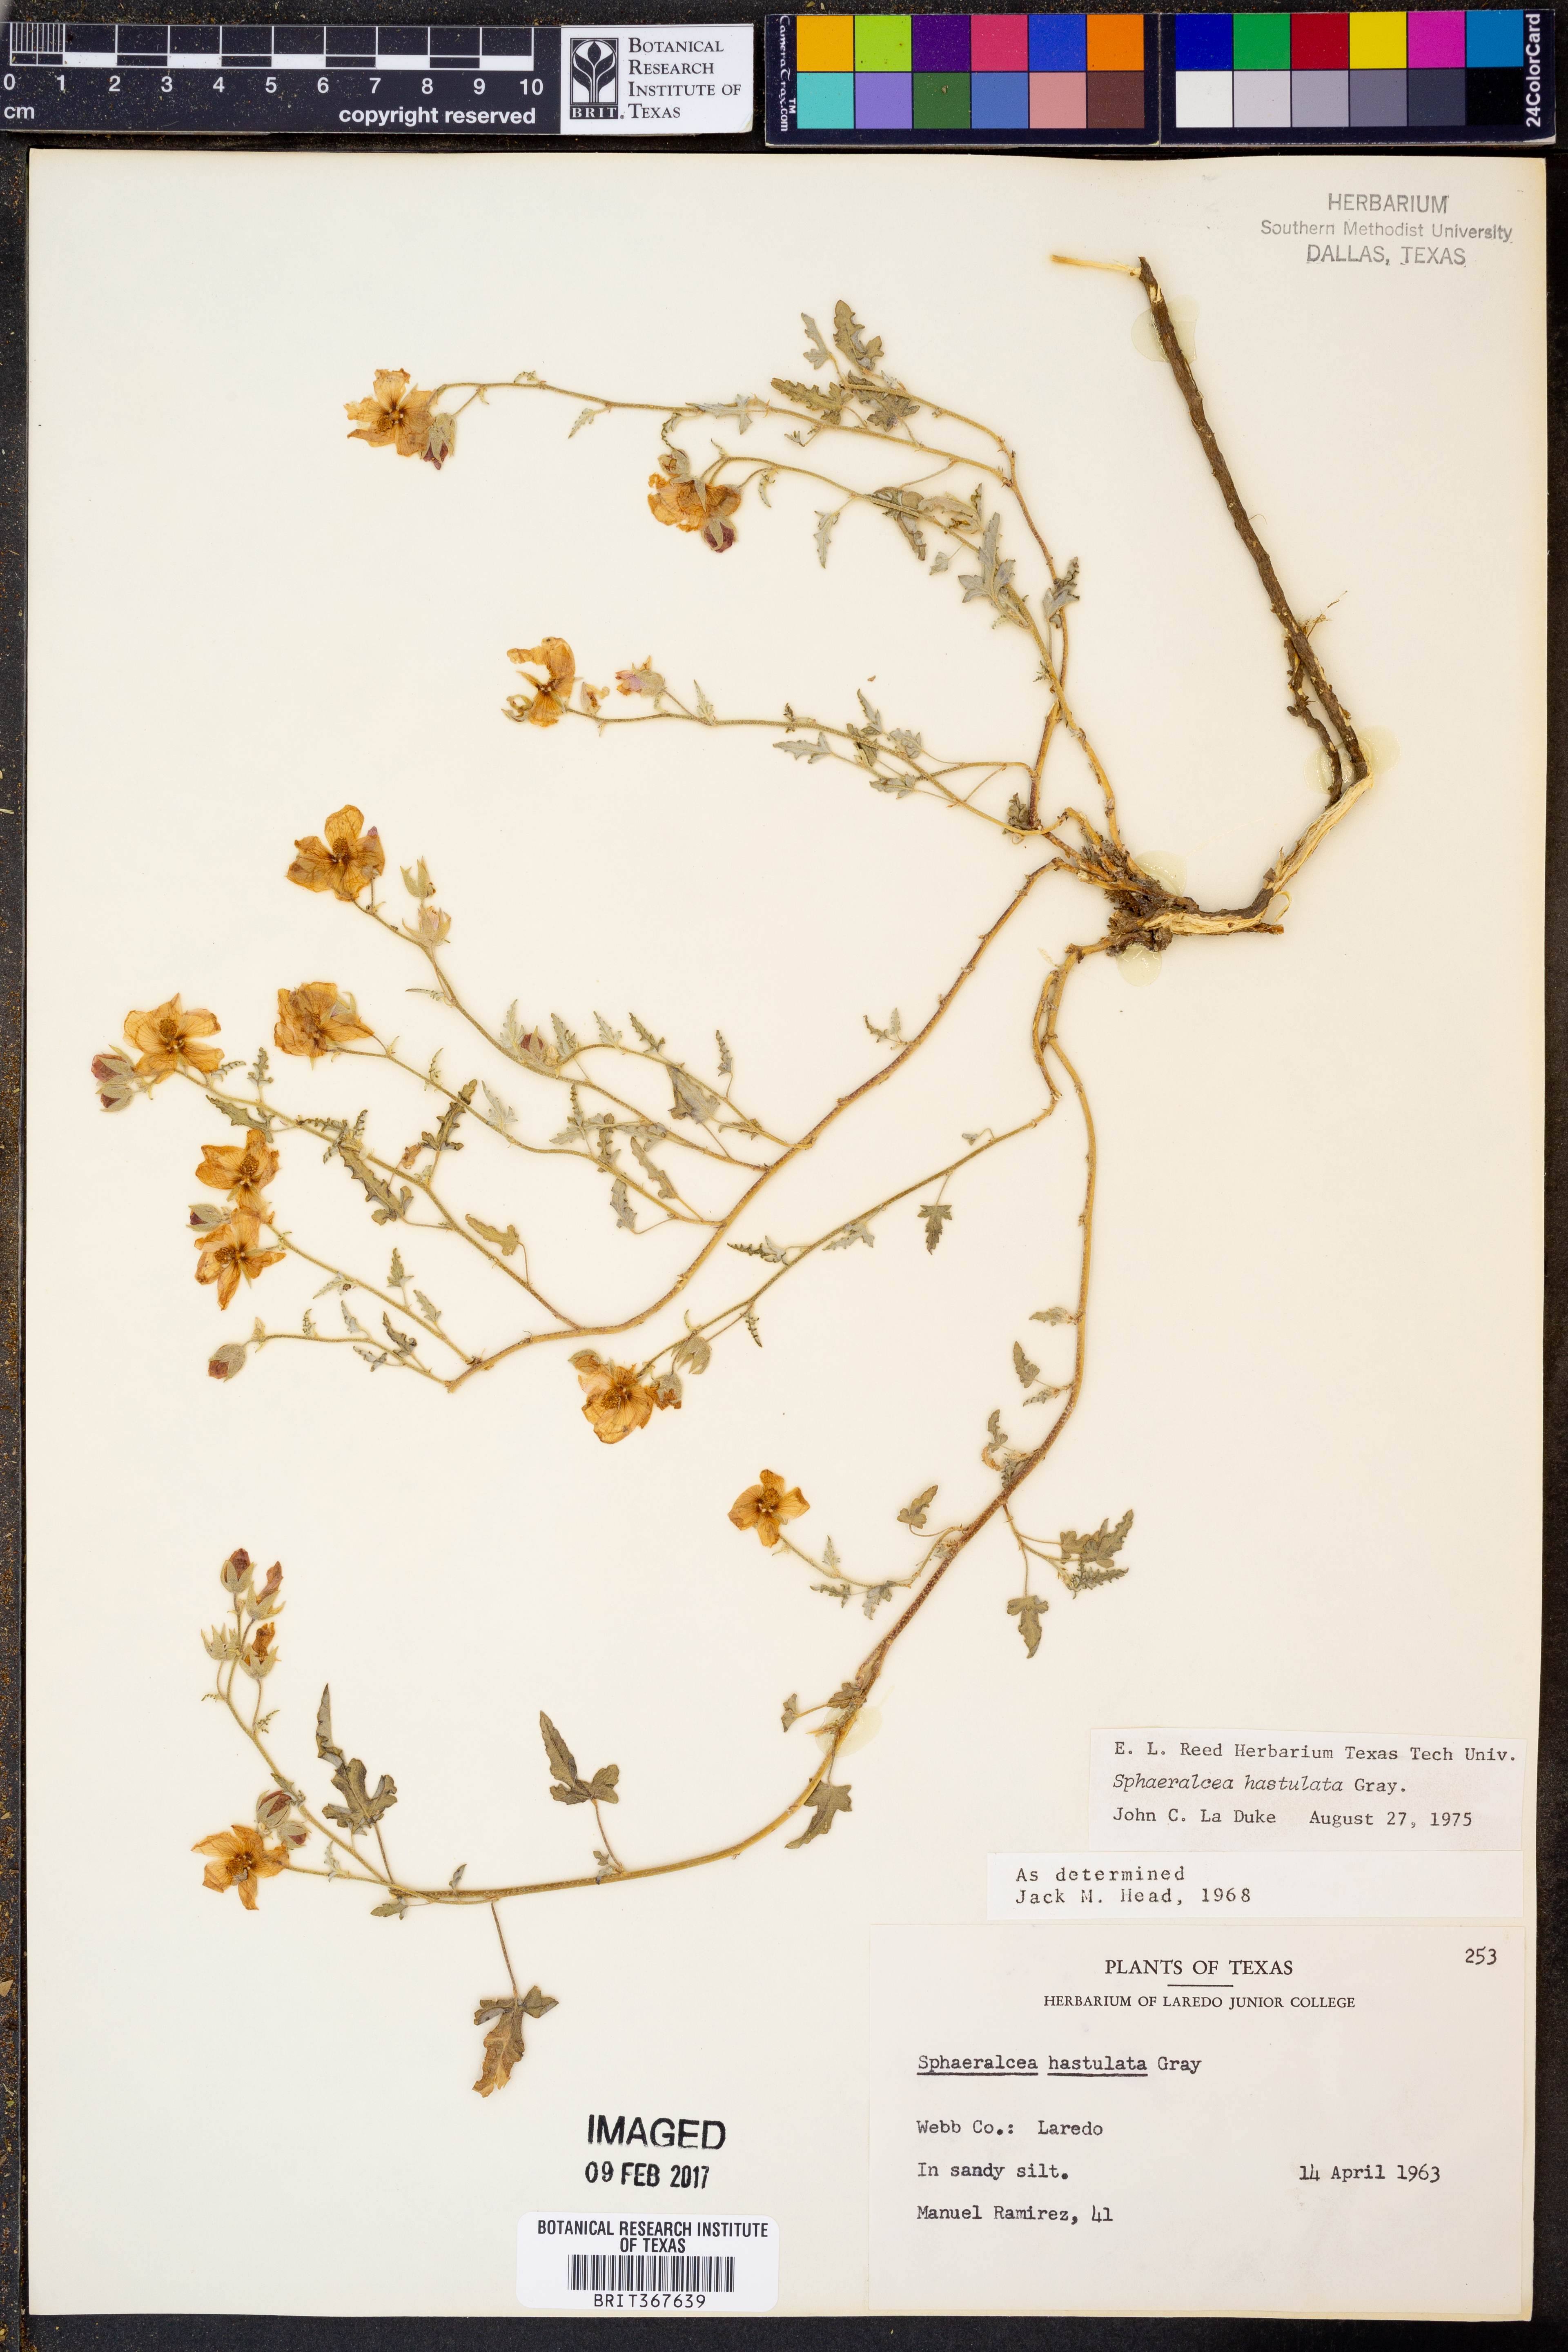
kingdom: Plantae
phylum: Tracheophyta
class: Magnoliopsida
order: Malvales
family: Malvaceae
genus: Sphaeralcea
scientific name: Sphaeralcea hastulata
